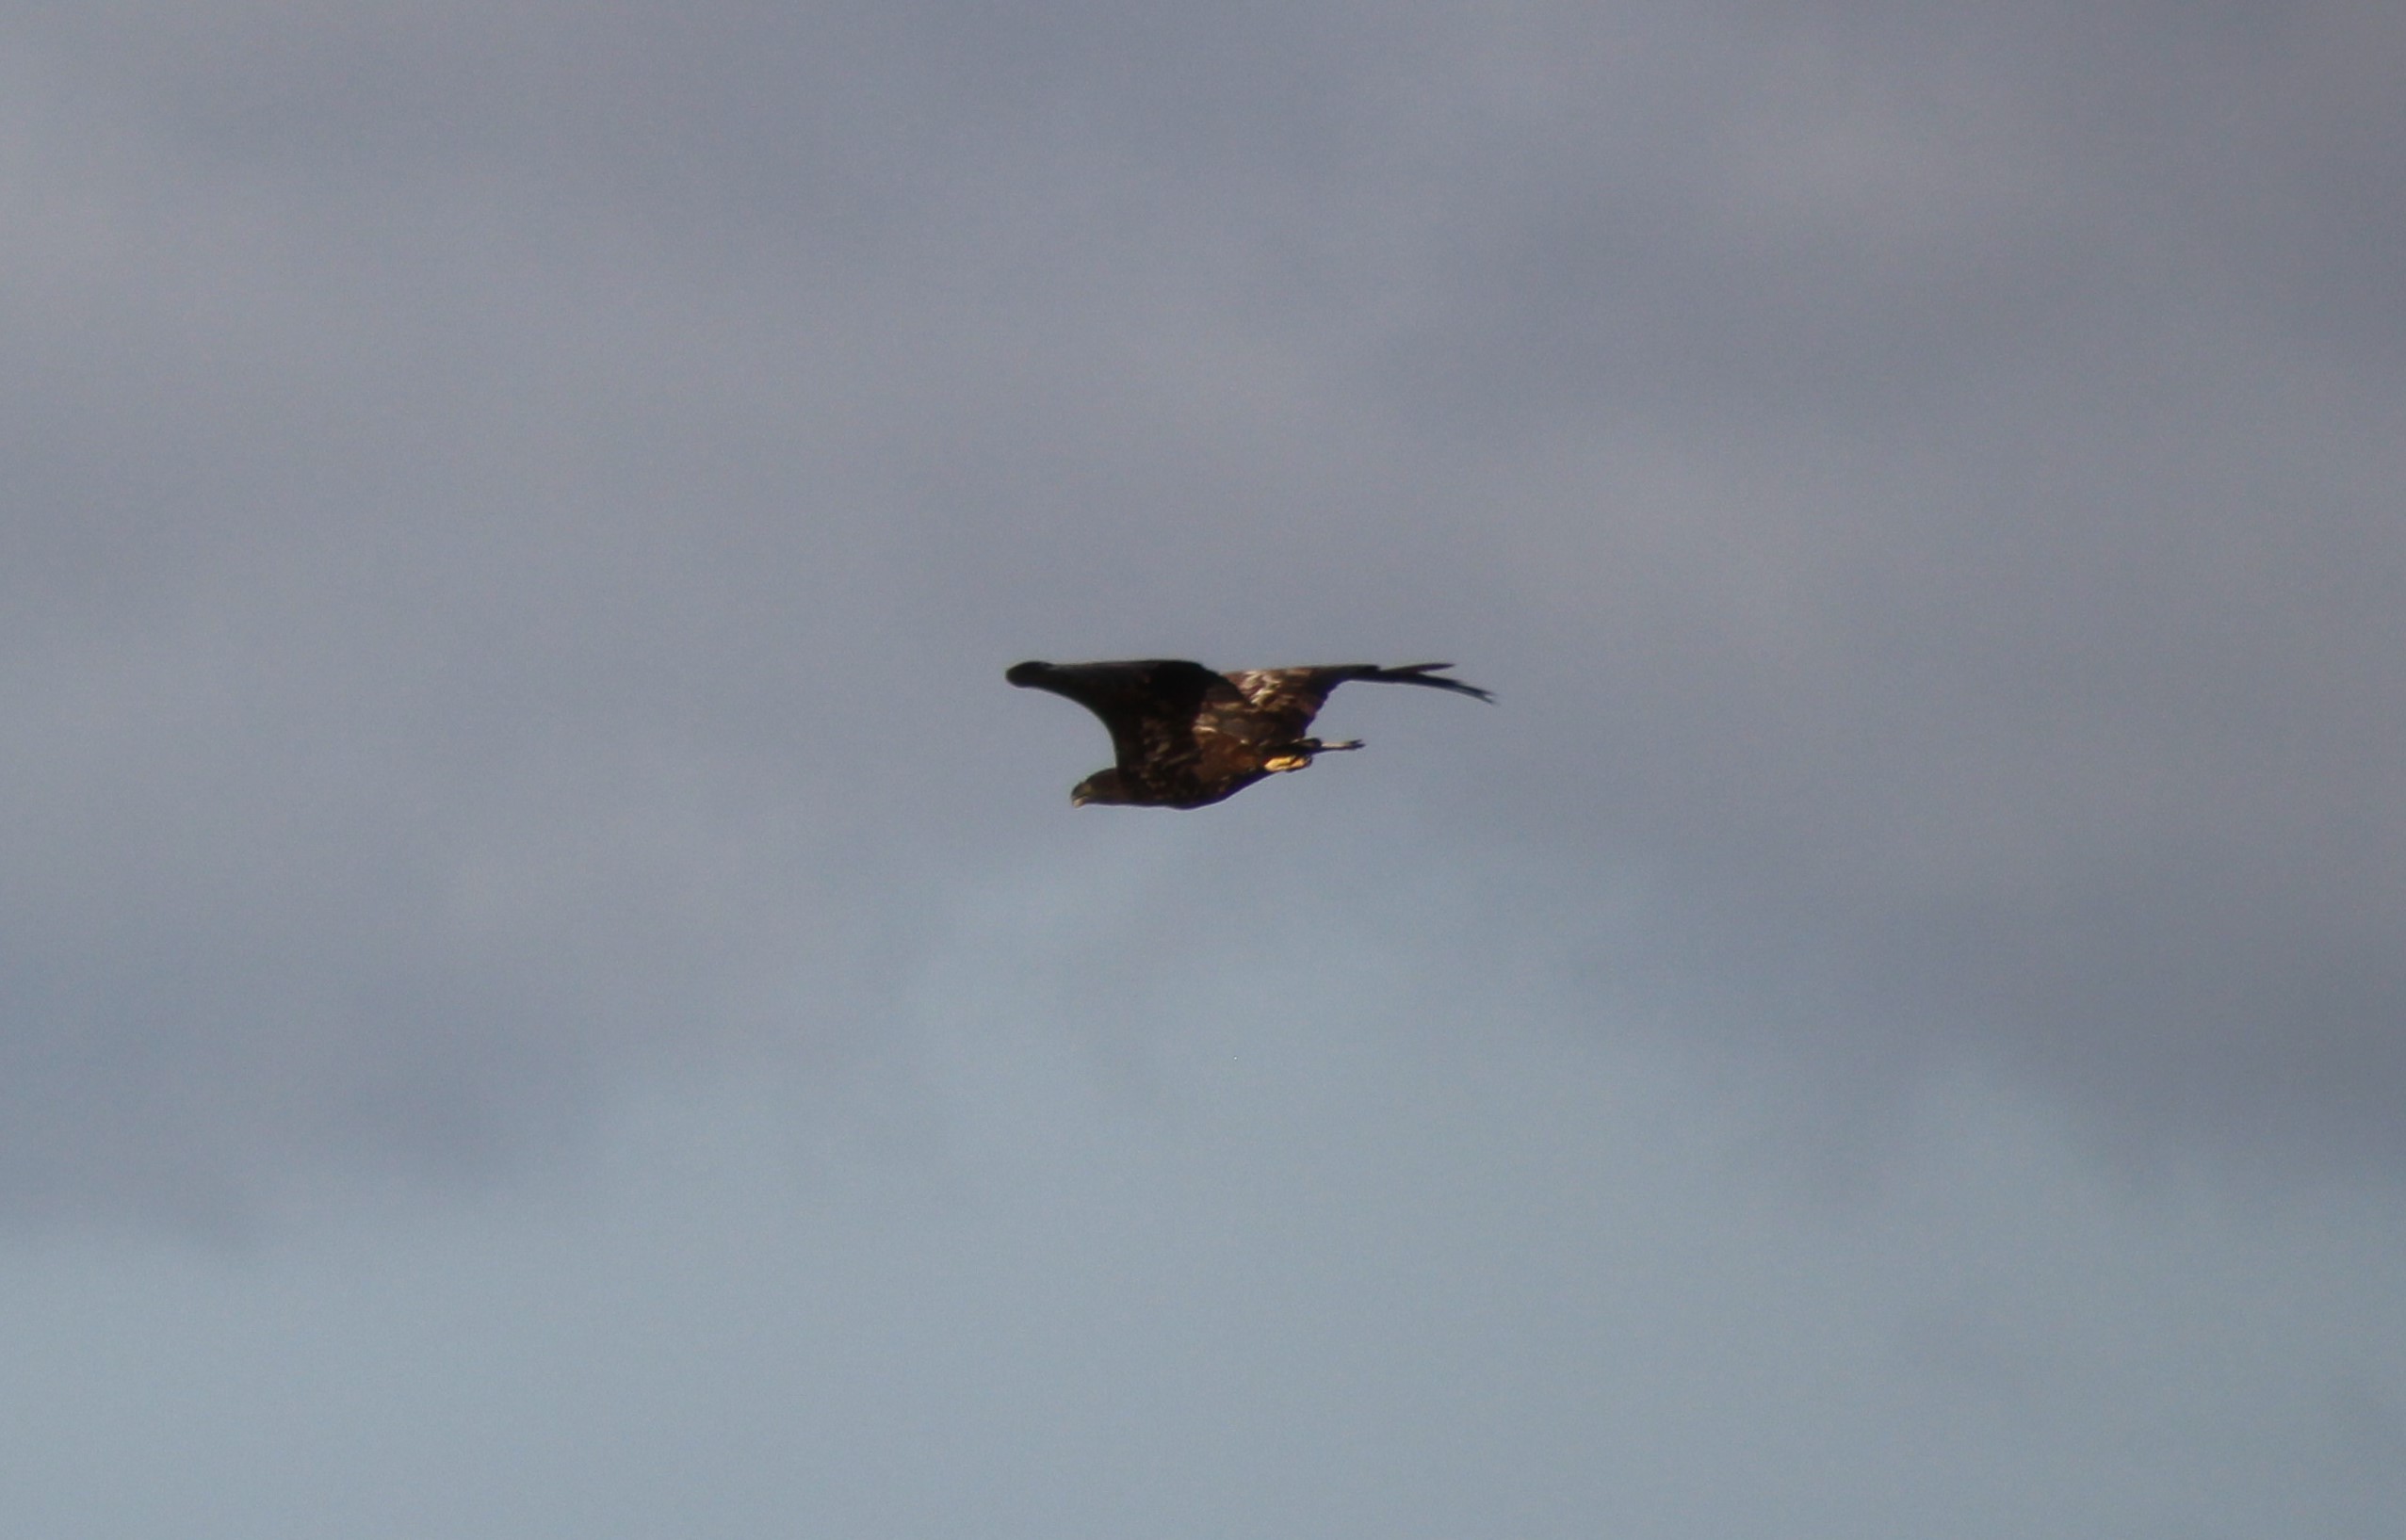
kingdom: Animalia
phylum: Chordata
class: Aves
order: Accipitriformes
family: Accipitridae
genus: Haliaeetus
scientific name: Haliaeetus albicilla
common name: Havørn
